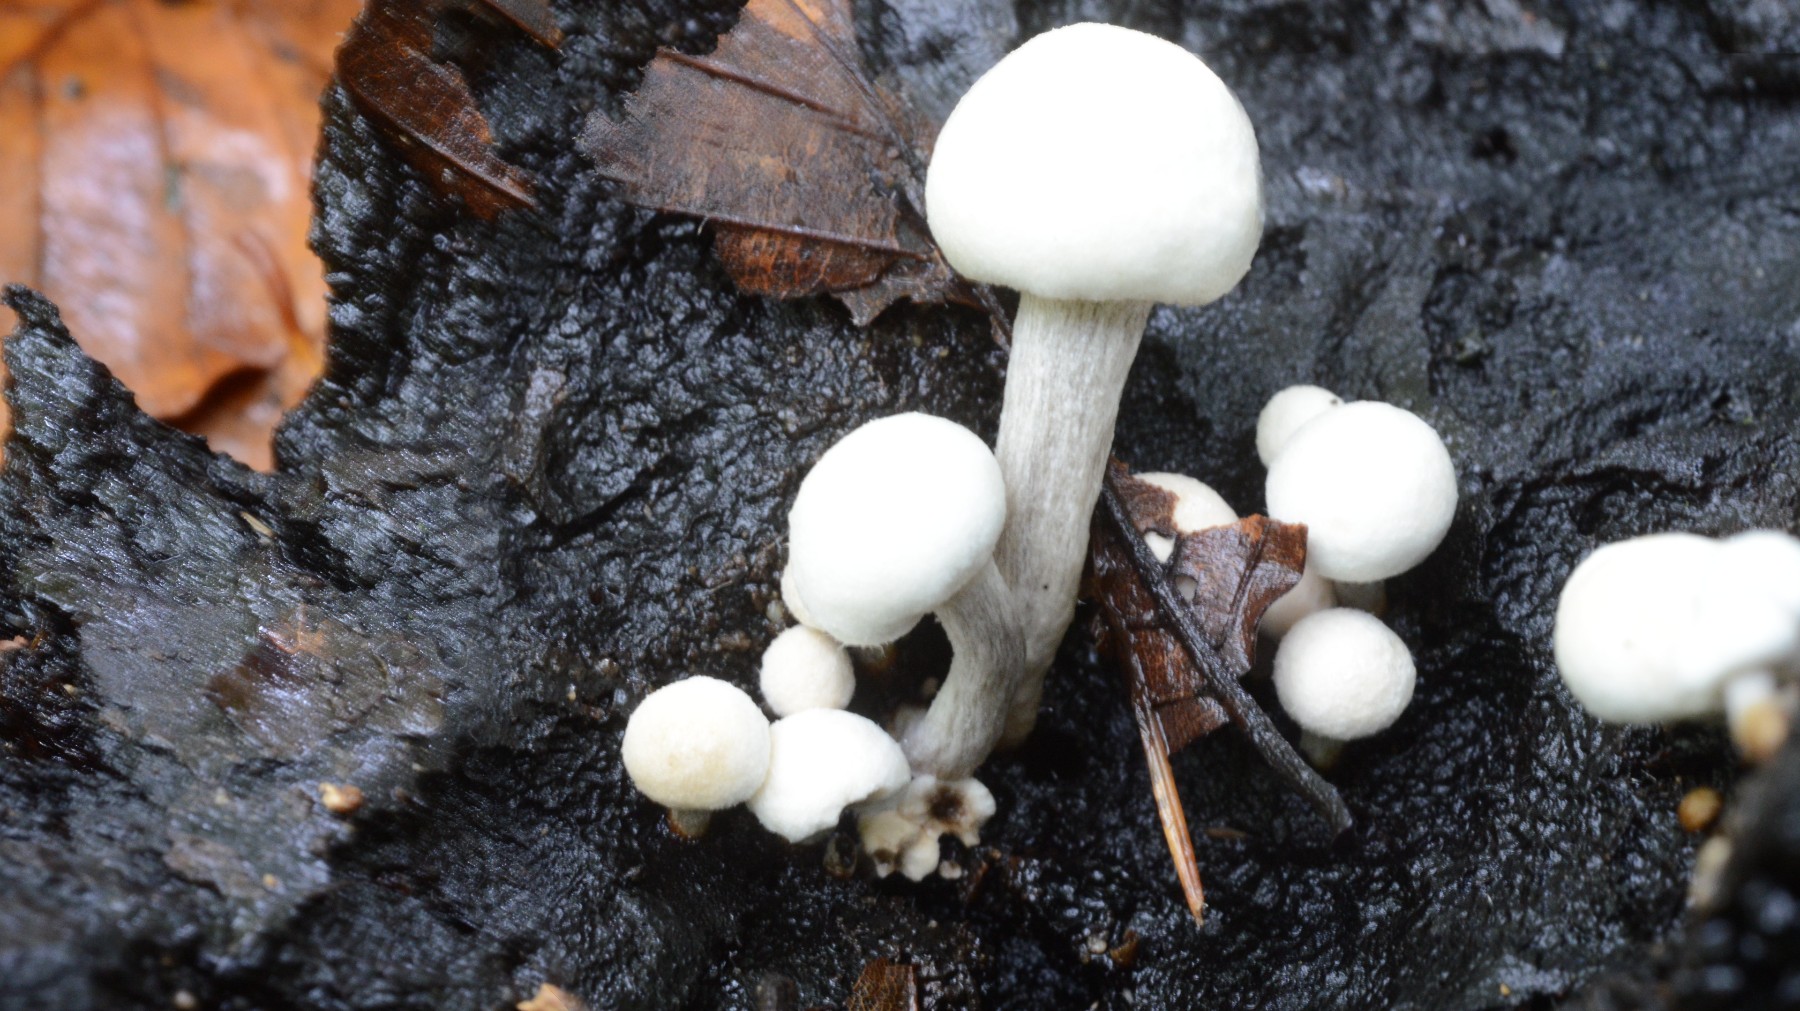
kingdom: Fungi
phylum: Basidiomycota
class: Agaricomycetes
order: Agaricales
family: Lyophyllaceae
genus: Asterophora
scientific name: Asterophora lycoperdoides
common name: brunpudret snyltehat
